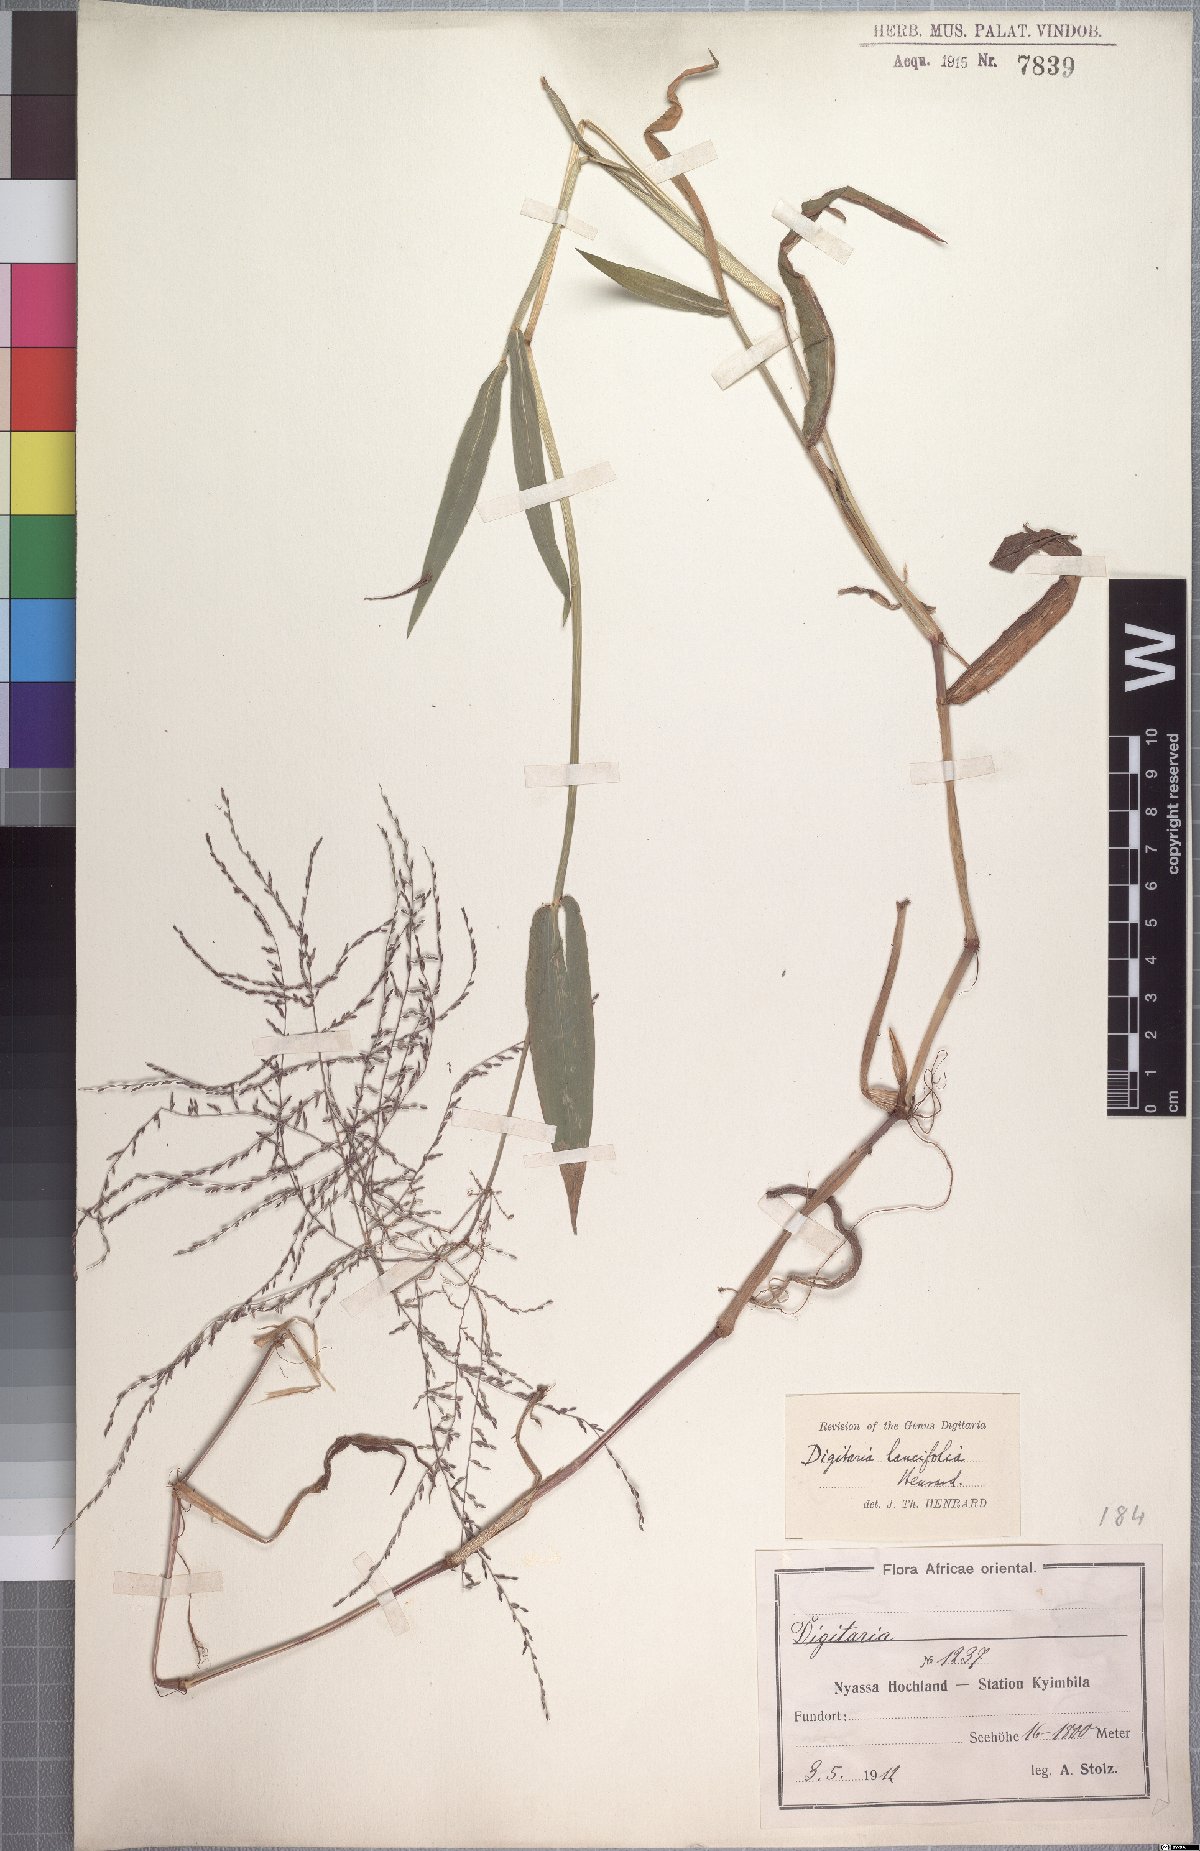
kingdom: Plantae
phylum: Tracheophyta
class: Liliopsida
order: Poales
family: Poaceae
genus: Digitaria
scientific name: Digitaria pearsonii
